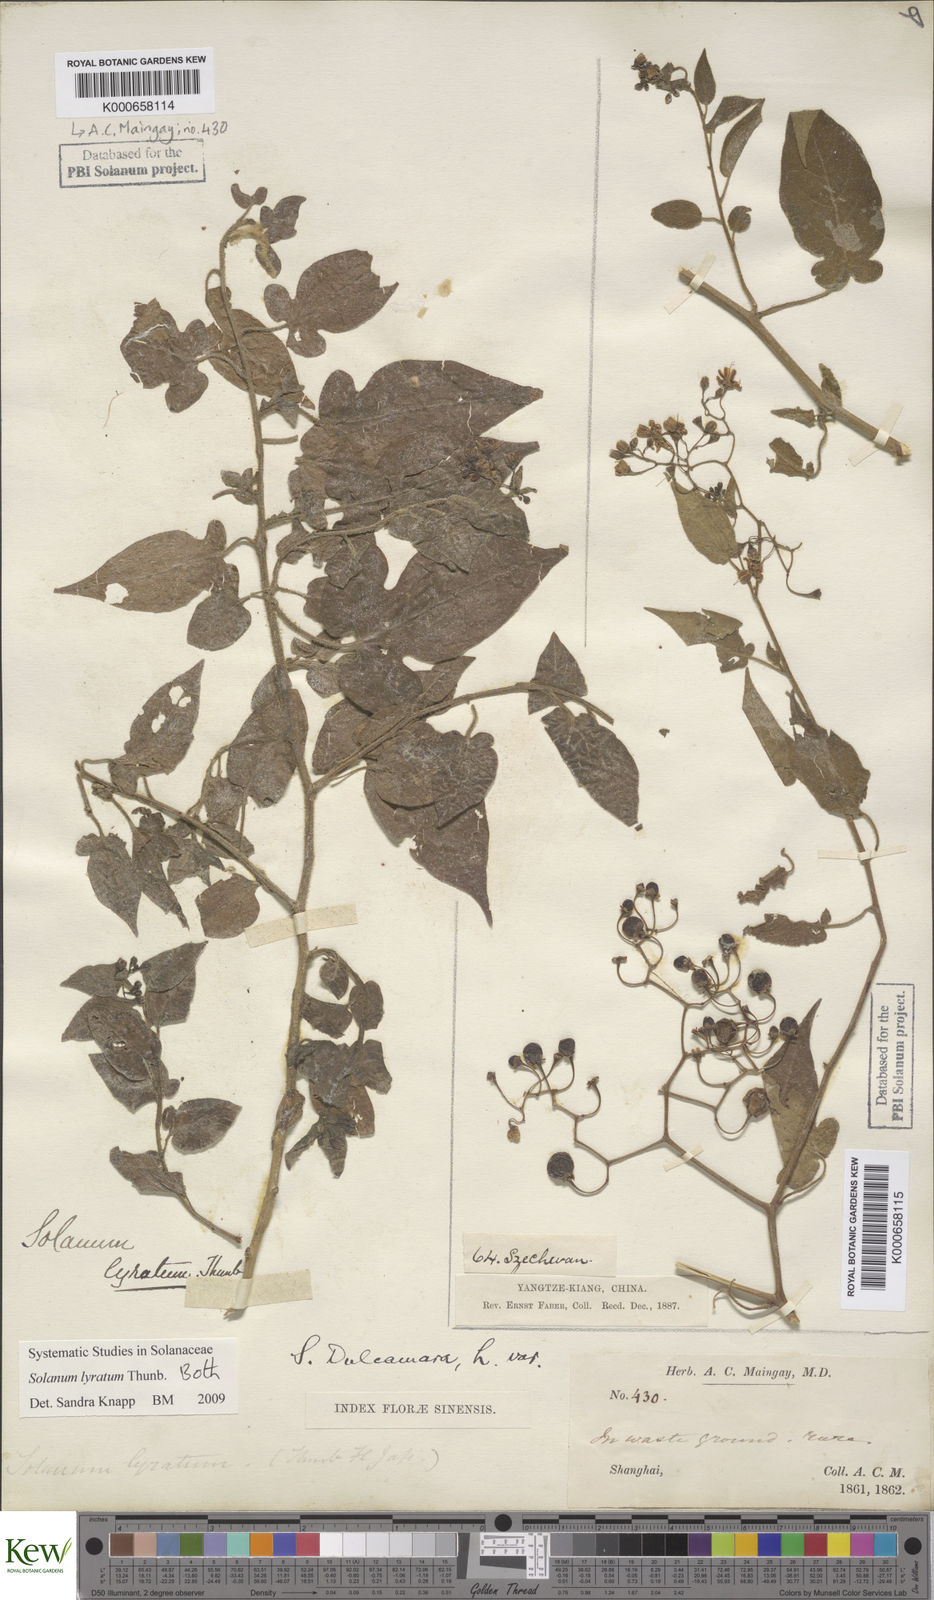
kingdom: Plantae
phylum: Tracheophyta
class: Magnoliopsida
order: Solanales
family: Solanaceae
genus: Solanum
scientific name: Solanum lyratum
